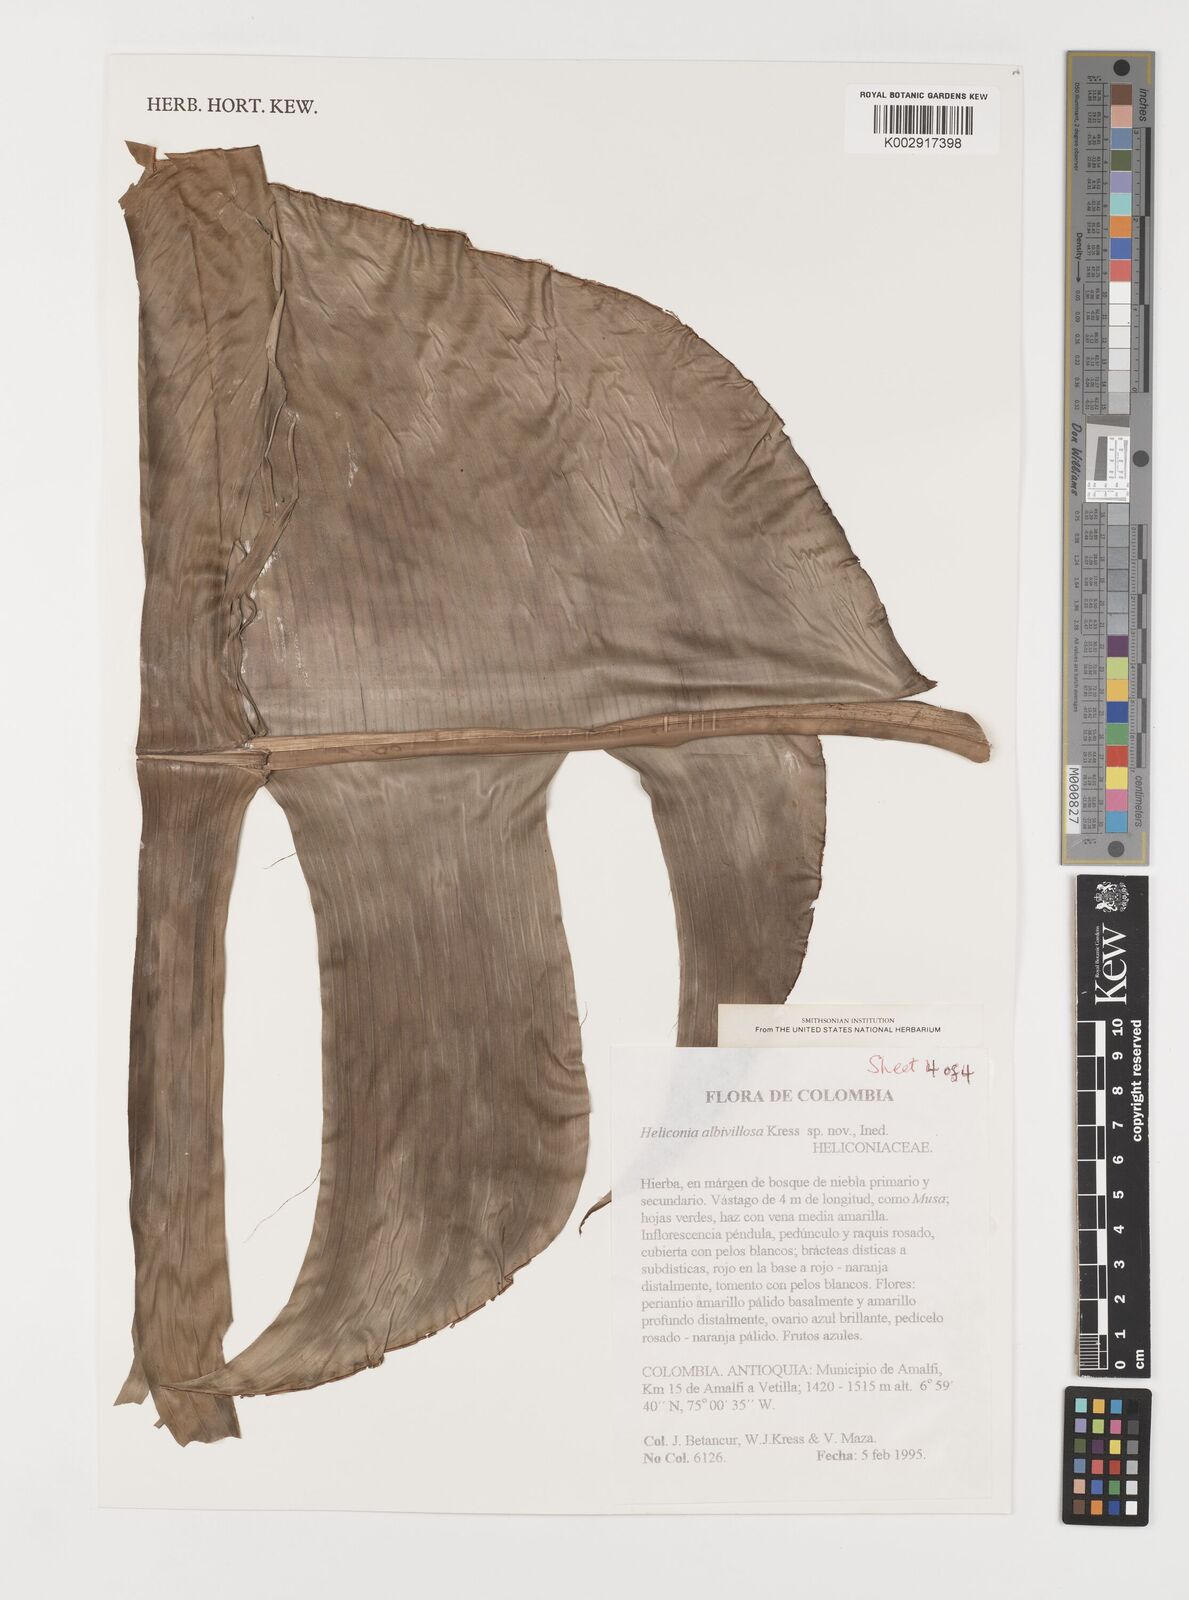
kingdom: Plantae
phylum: Tracheophyta
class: Liliopsida
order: Zingiberales
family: Heliconiaceae
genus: Heliconia
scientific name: Heliconia
